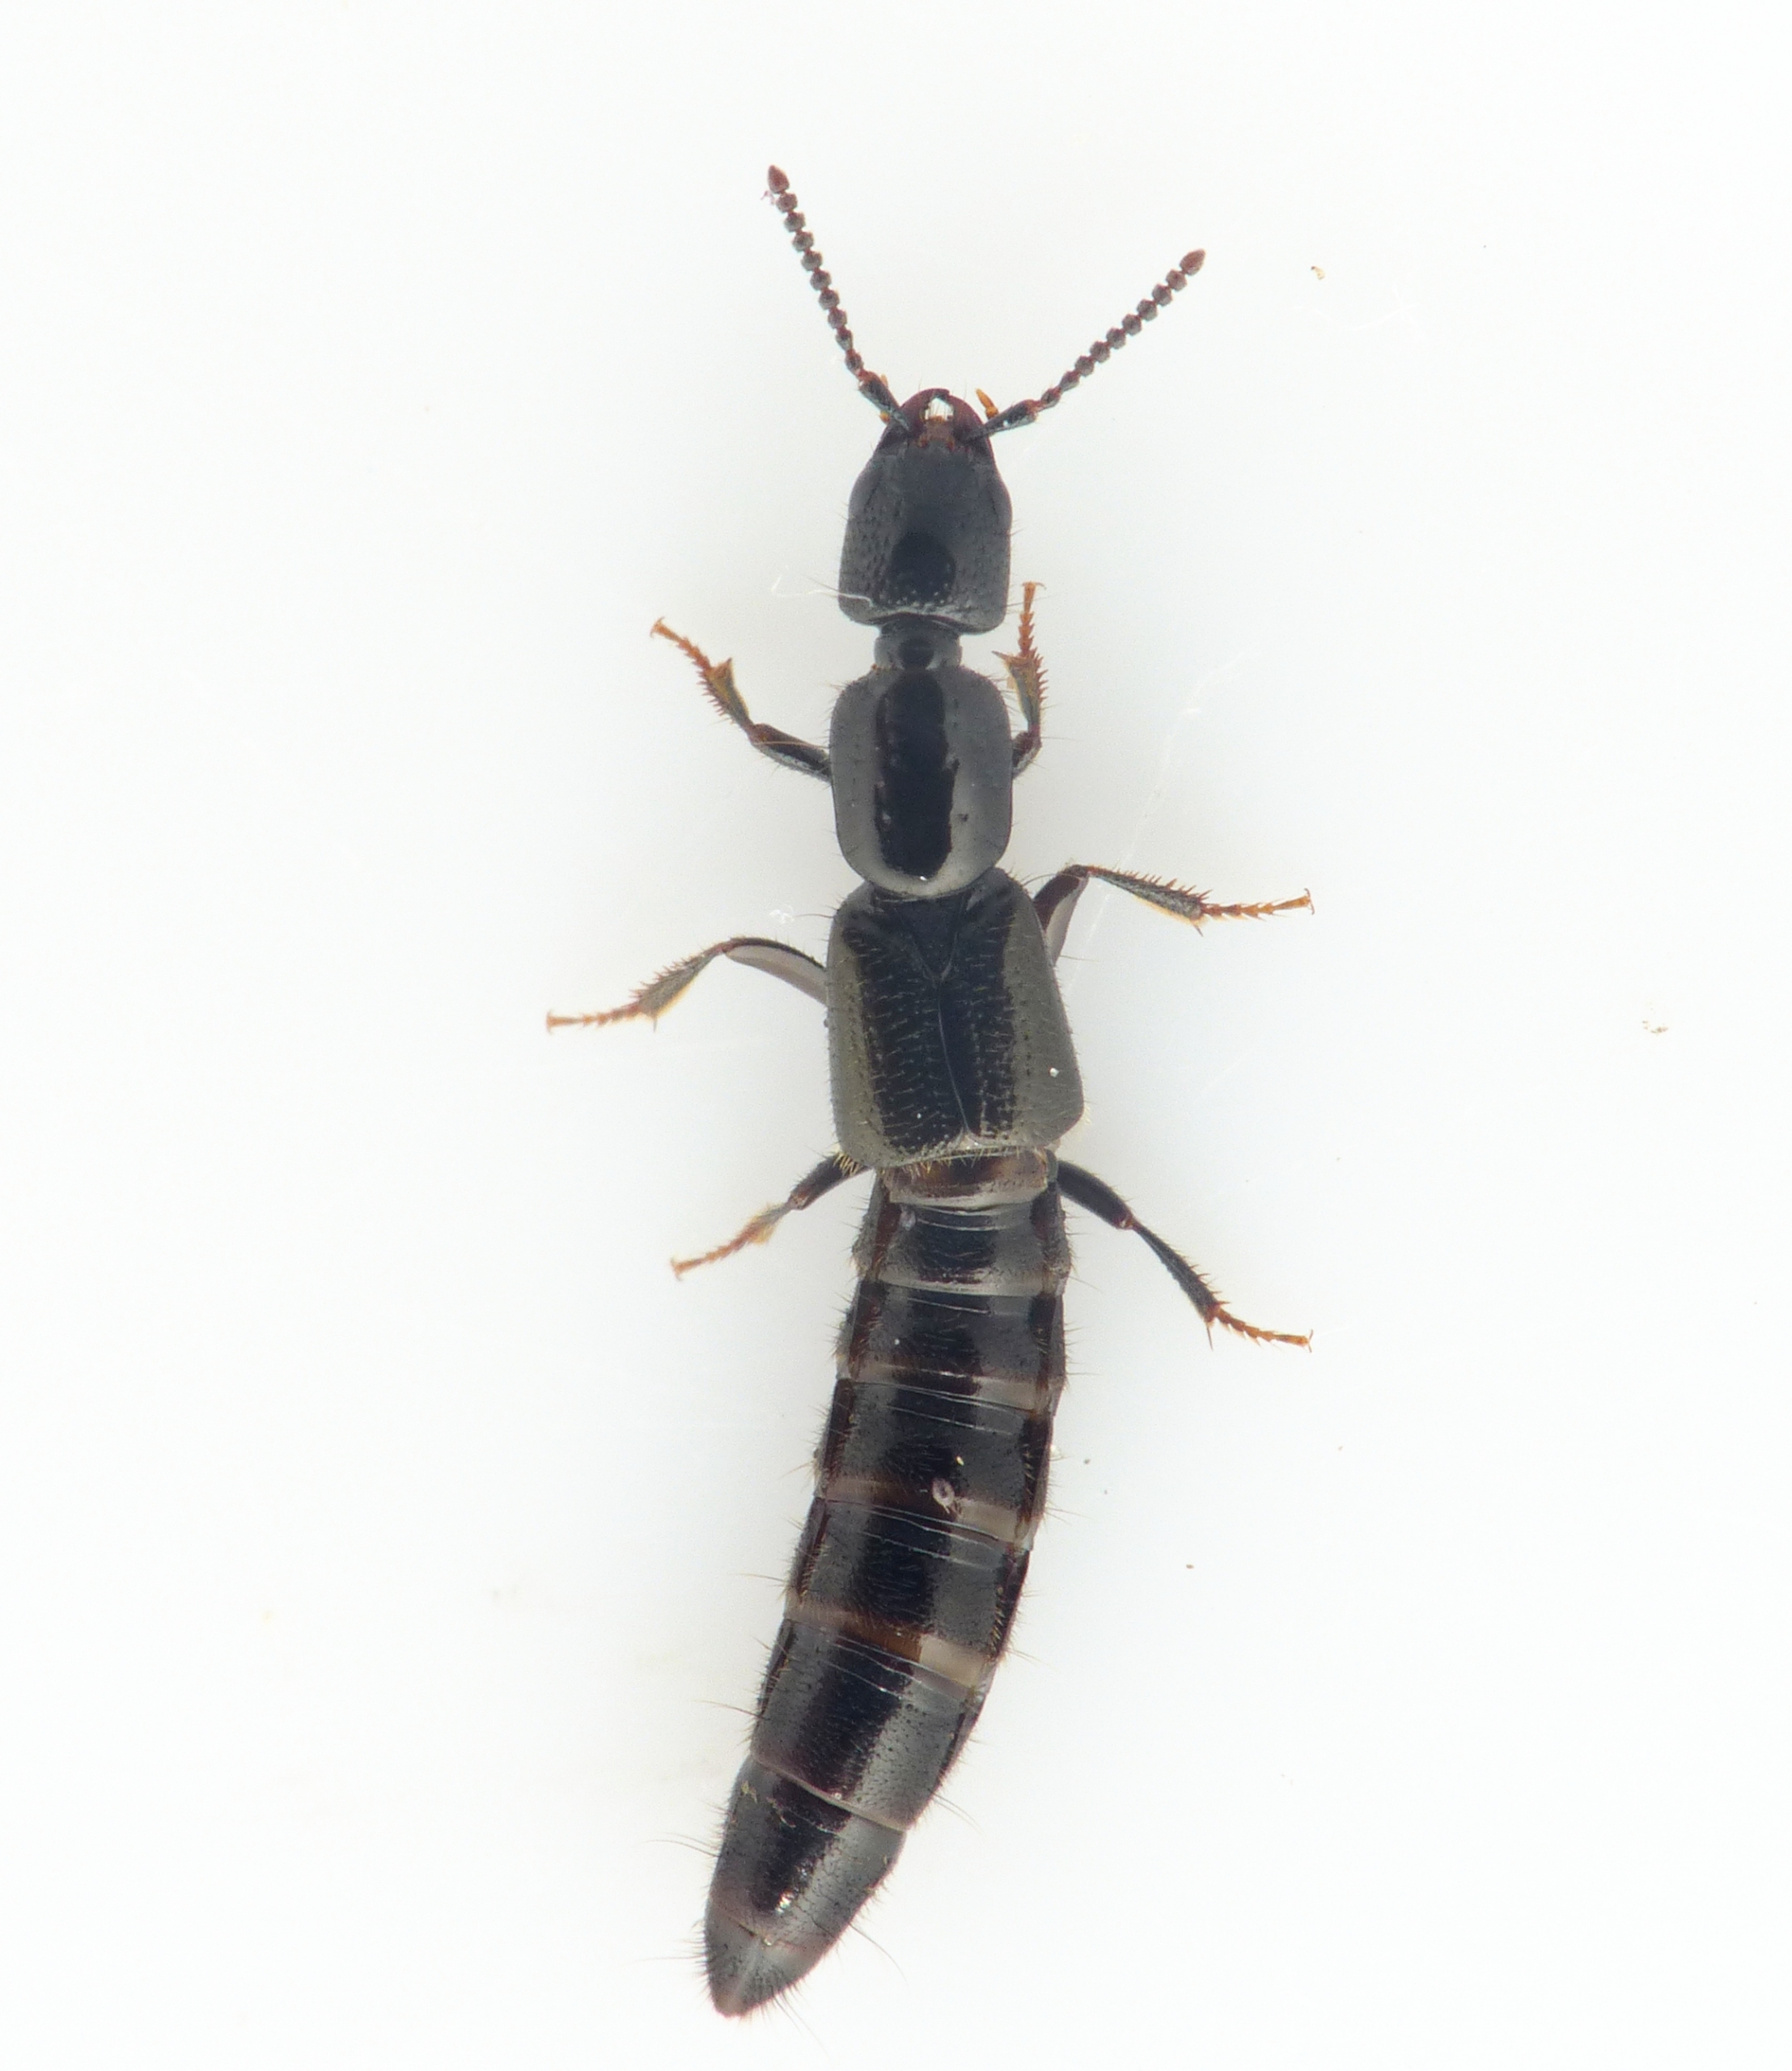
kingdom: Animalia
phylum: Arthropoda
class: Insecta
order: Coleoptera
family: Staphylinidae
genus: Gyrohypnus
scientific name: Gyrohypnus fracticornis
